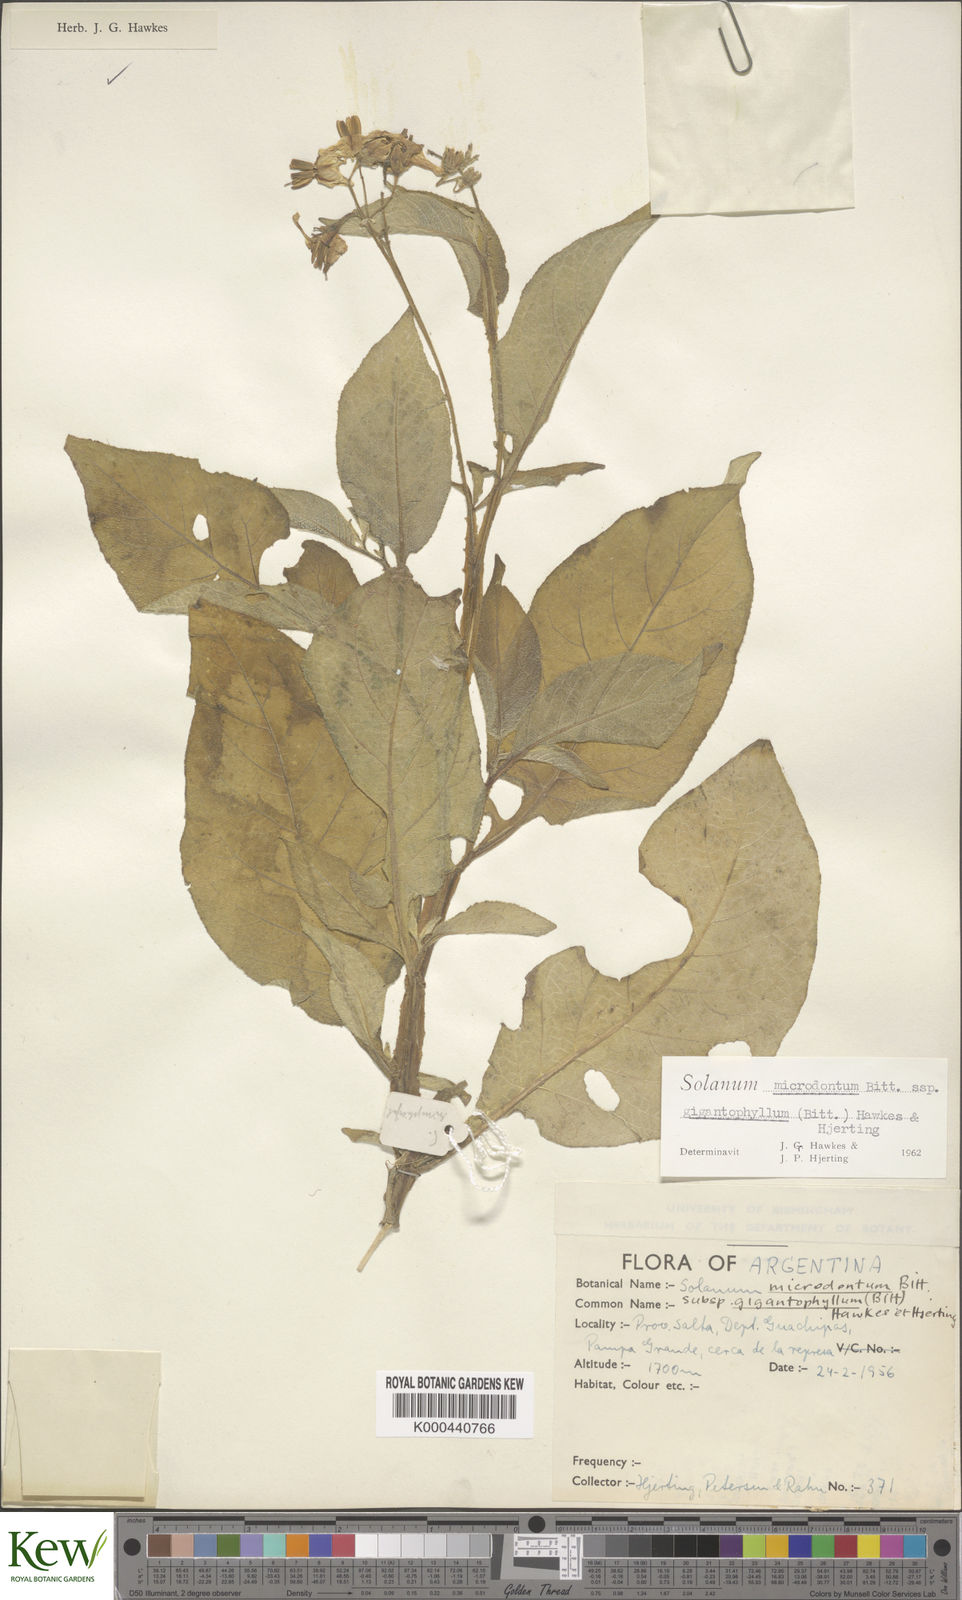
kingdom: Plantae
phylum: Tracheophyta
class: Magnoliopsida
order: Solanales
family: Solanaceae
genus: Solanum
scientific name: Solanum microdontum
